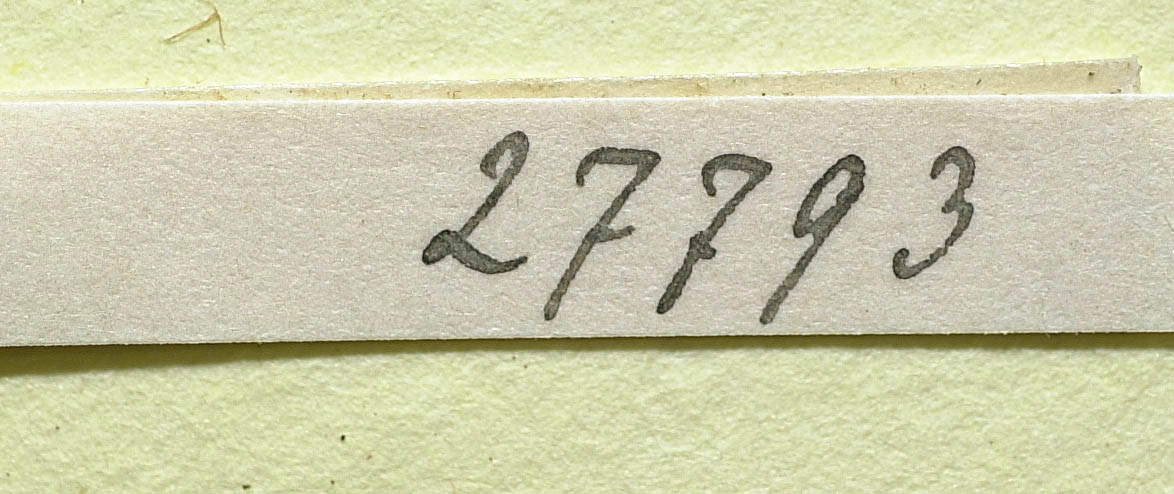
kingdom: Plantae
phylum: Tracheophyta
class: Magnoliopsida
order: Asterales
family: Asteraceae
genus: Pilosella
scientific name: Pilosella acutifolia
